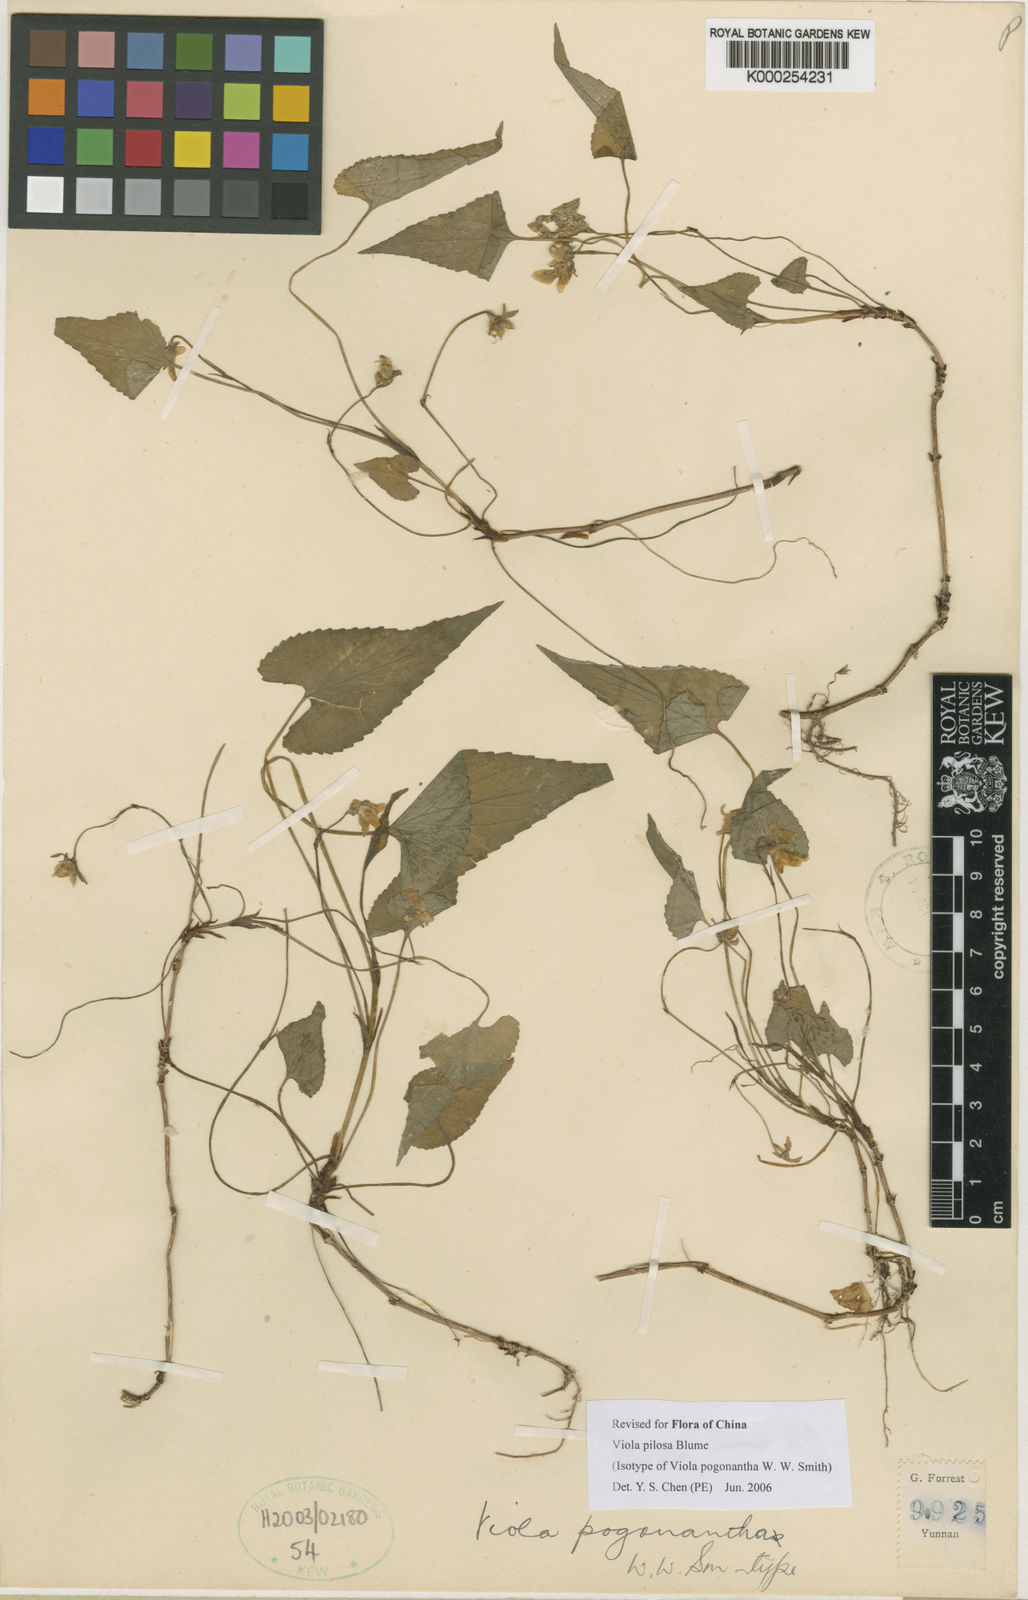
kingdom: Plantae
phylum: Tracheophyta
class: Magnoliopsida
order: Malpighiales
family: Violaceae
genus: Viola
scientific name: Viola pilosa
